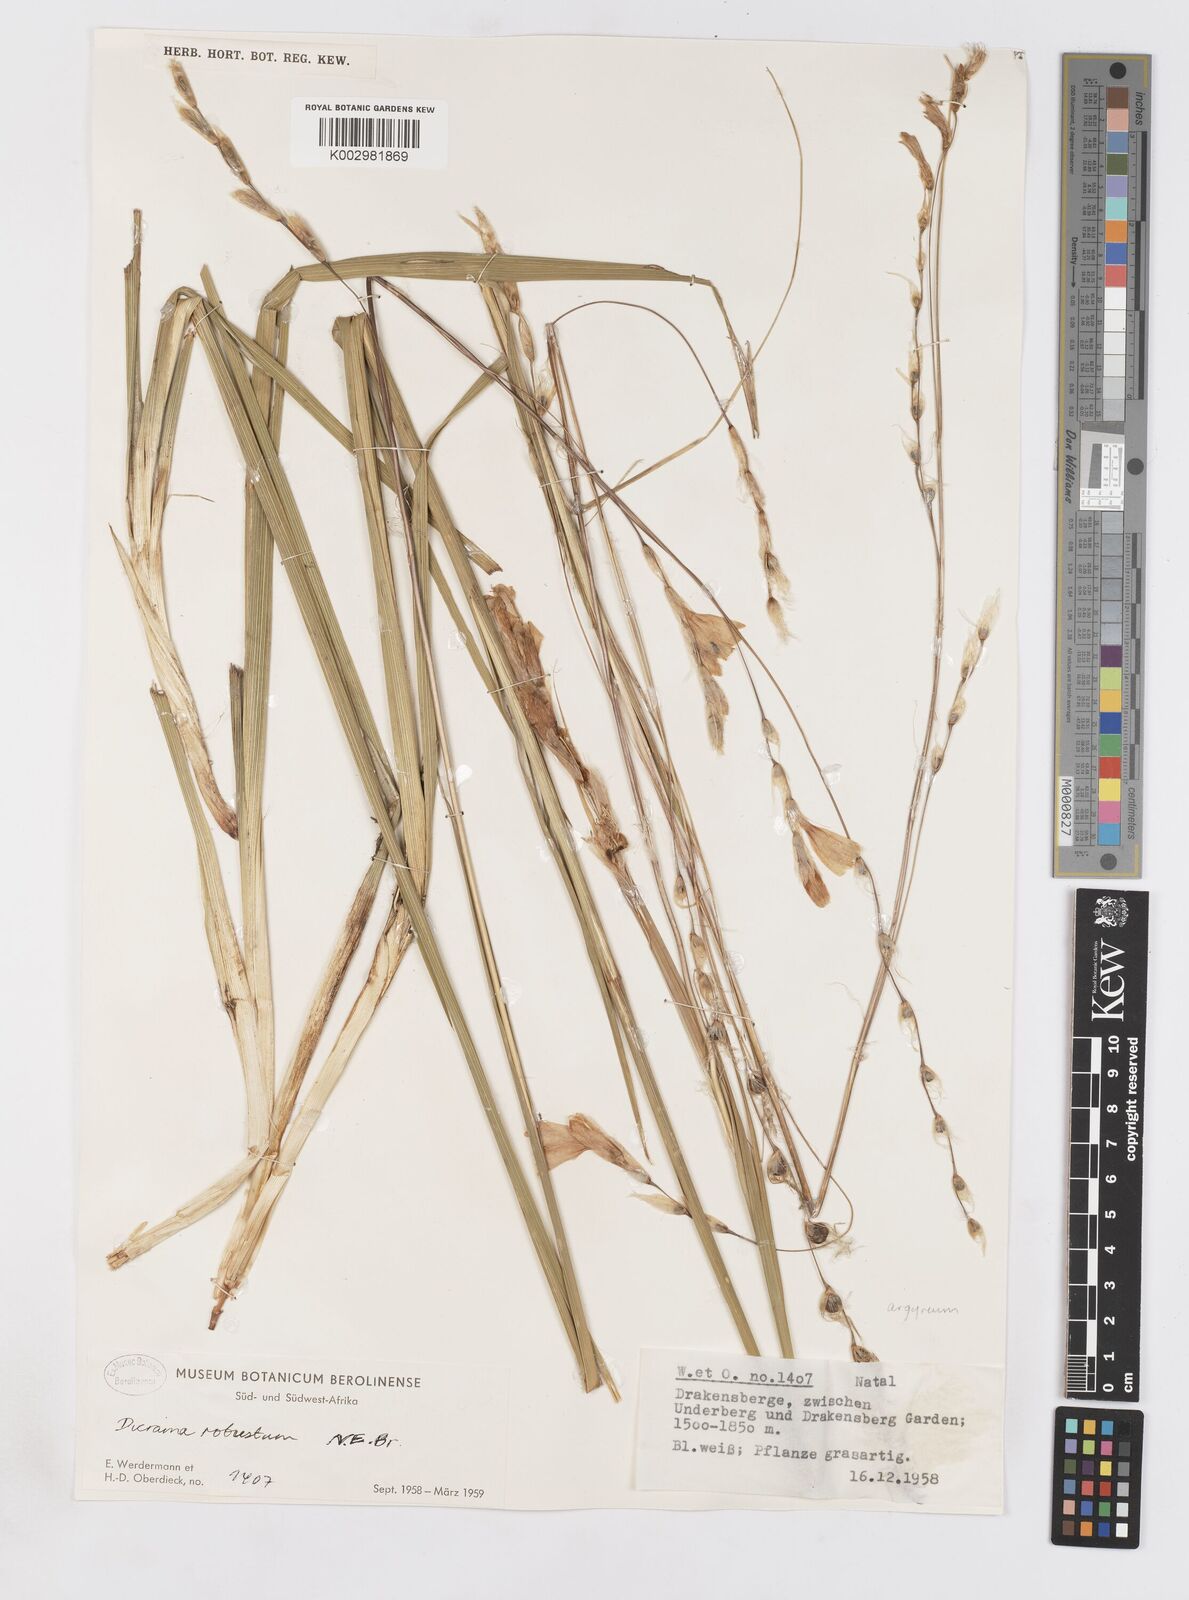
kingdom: Plantae
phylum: Tracheophyta
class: Liliopsida
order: Asparagales
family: Iridaceae
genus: Dierama
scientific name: Dierama argyreum
